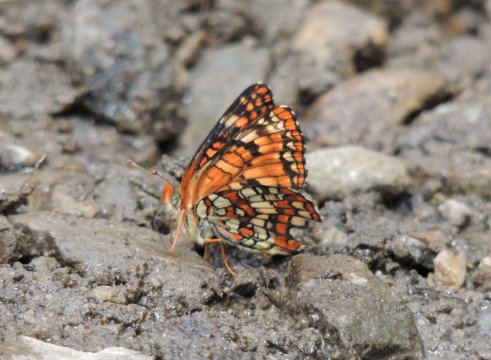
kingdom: Animalia
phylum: Arthropoda
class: Insecta
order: Lepidoptera
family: Nymphalidae
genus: Chlosyne
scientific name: Chlosyne palla
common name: Northern Checkerspot
